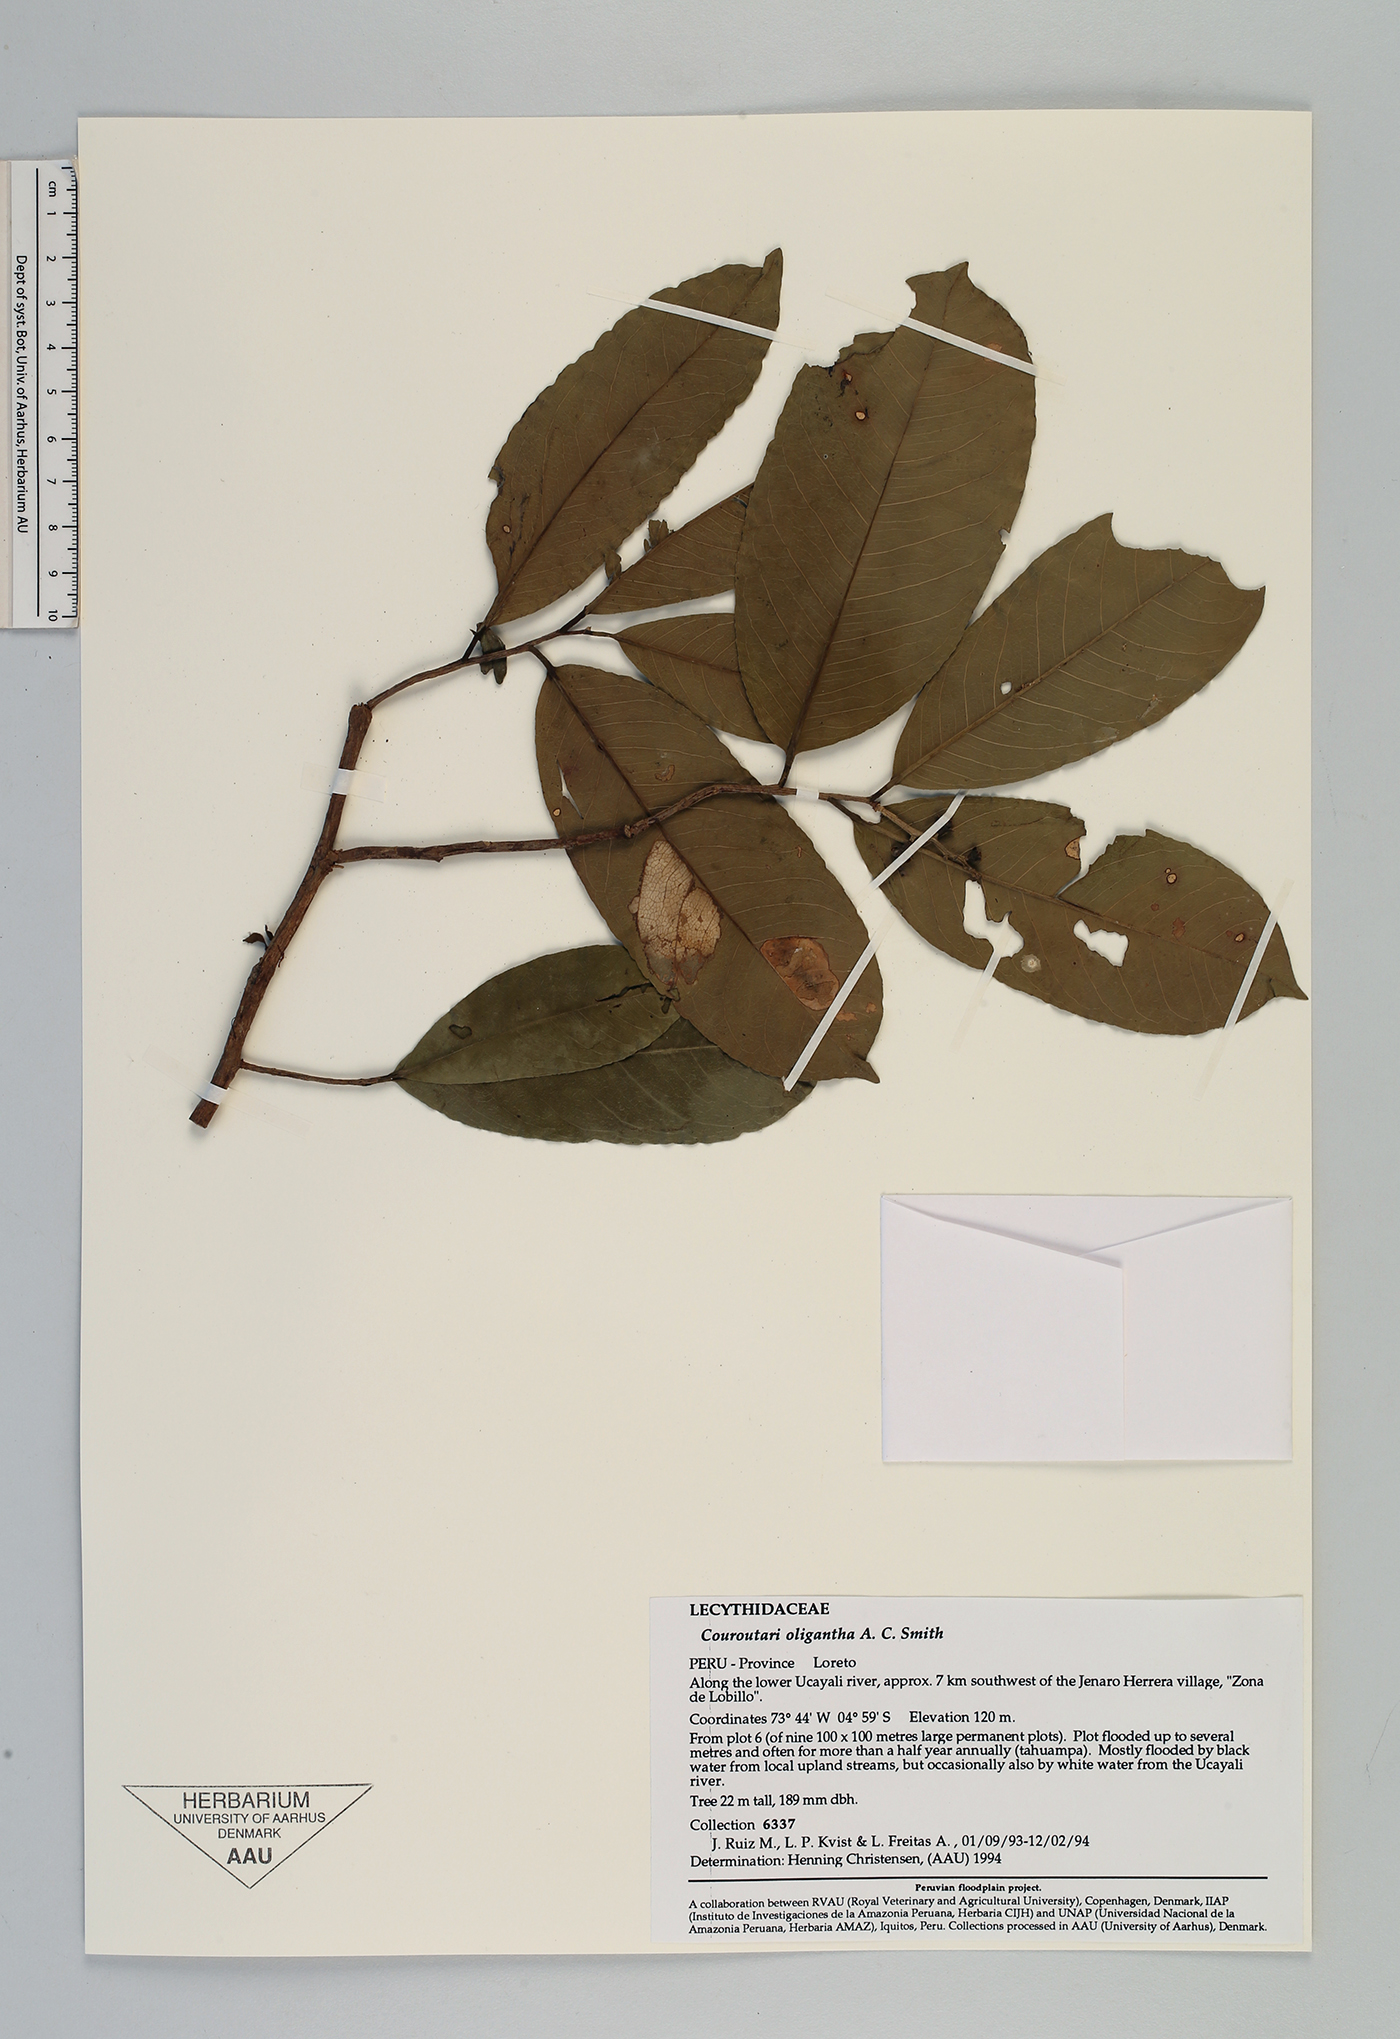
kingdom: Plantae
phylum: Tracheophyta
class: Magnoliopsida
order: Ericales
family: Lecythidaceae
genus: Couratari
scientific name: Couratari oligantha
